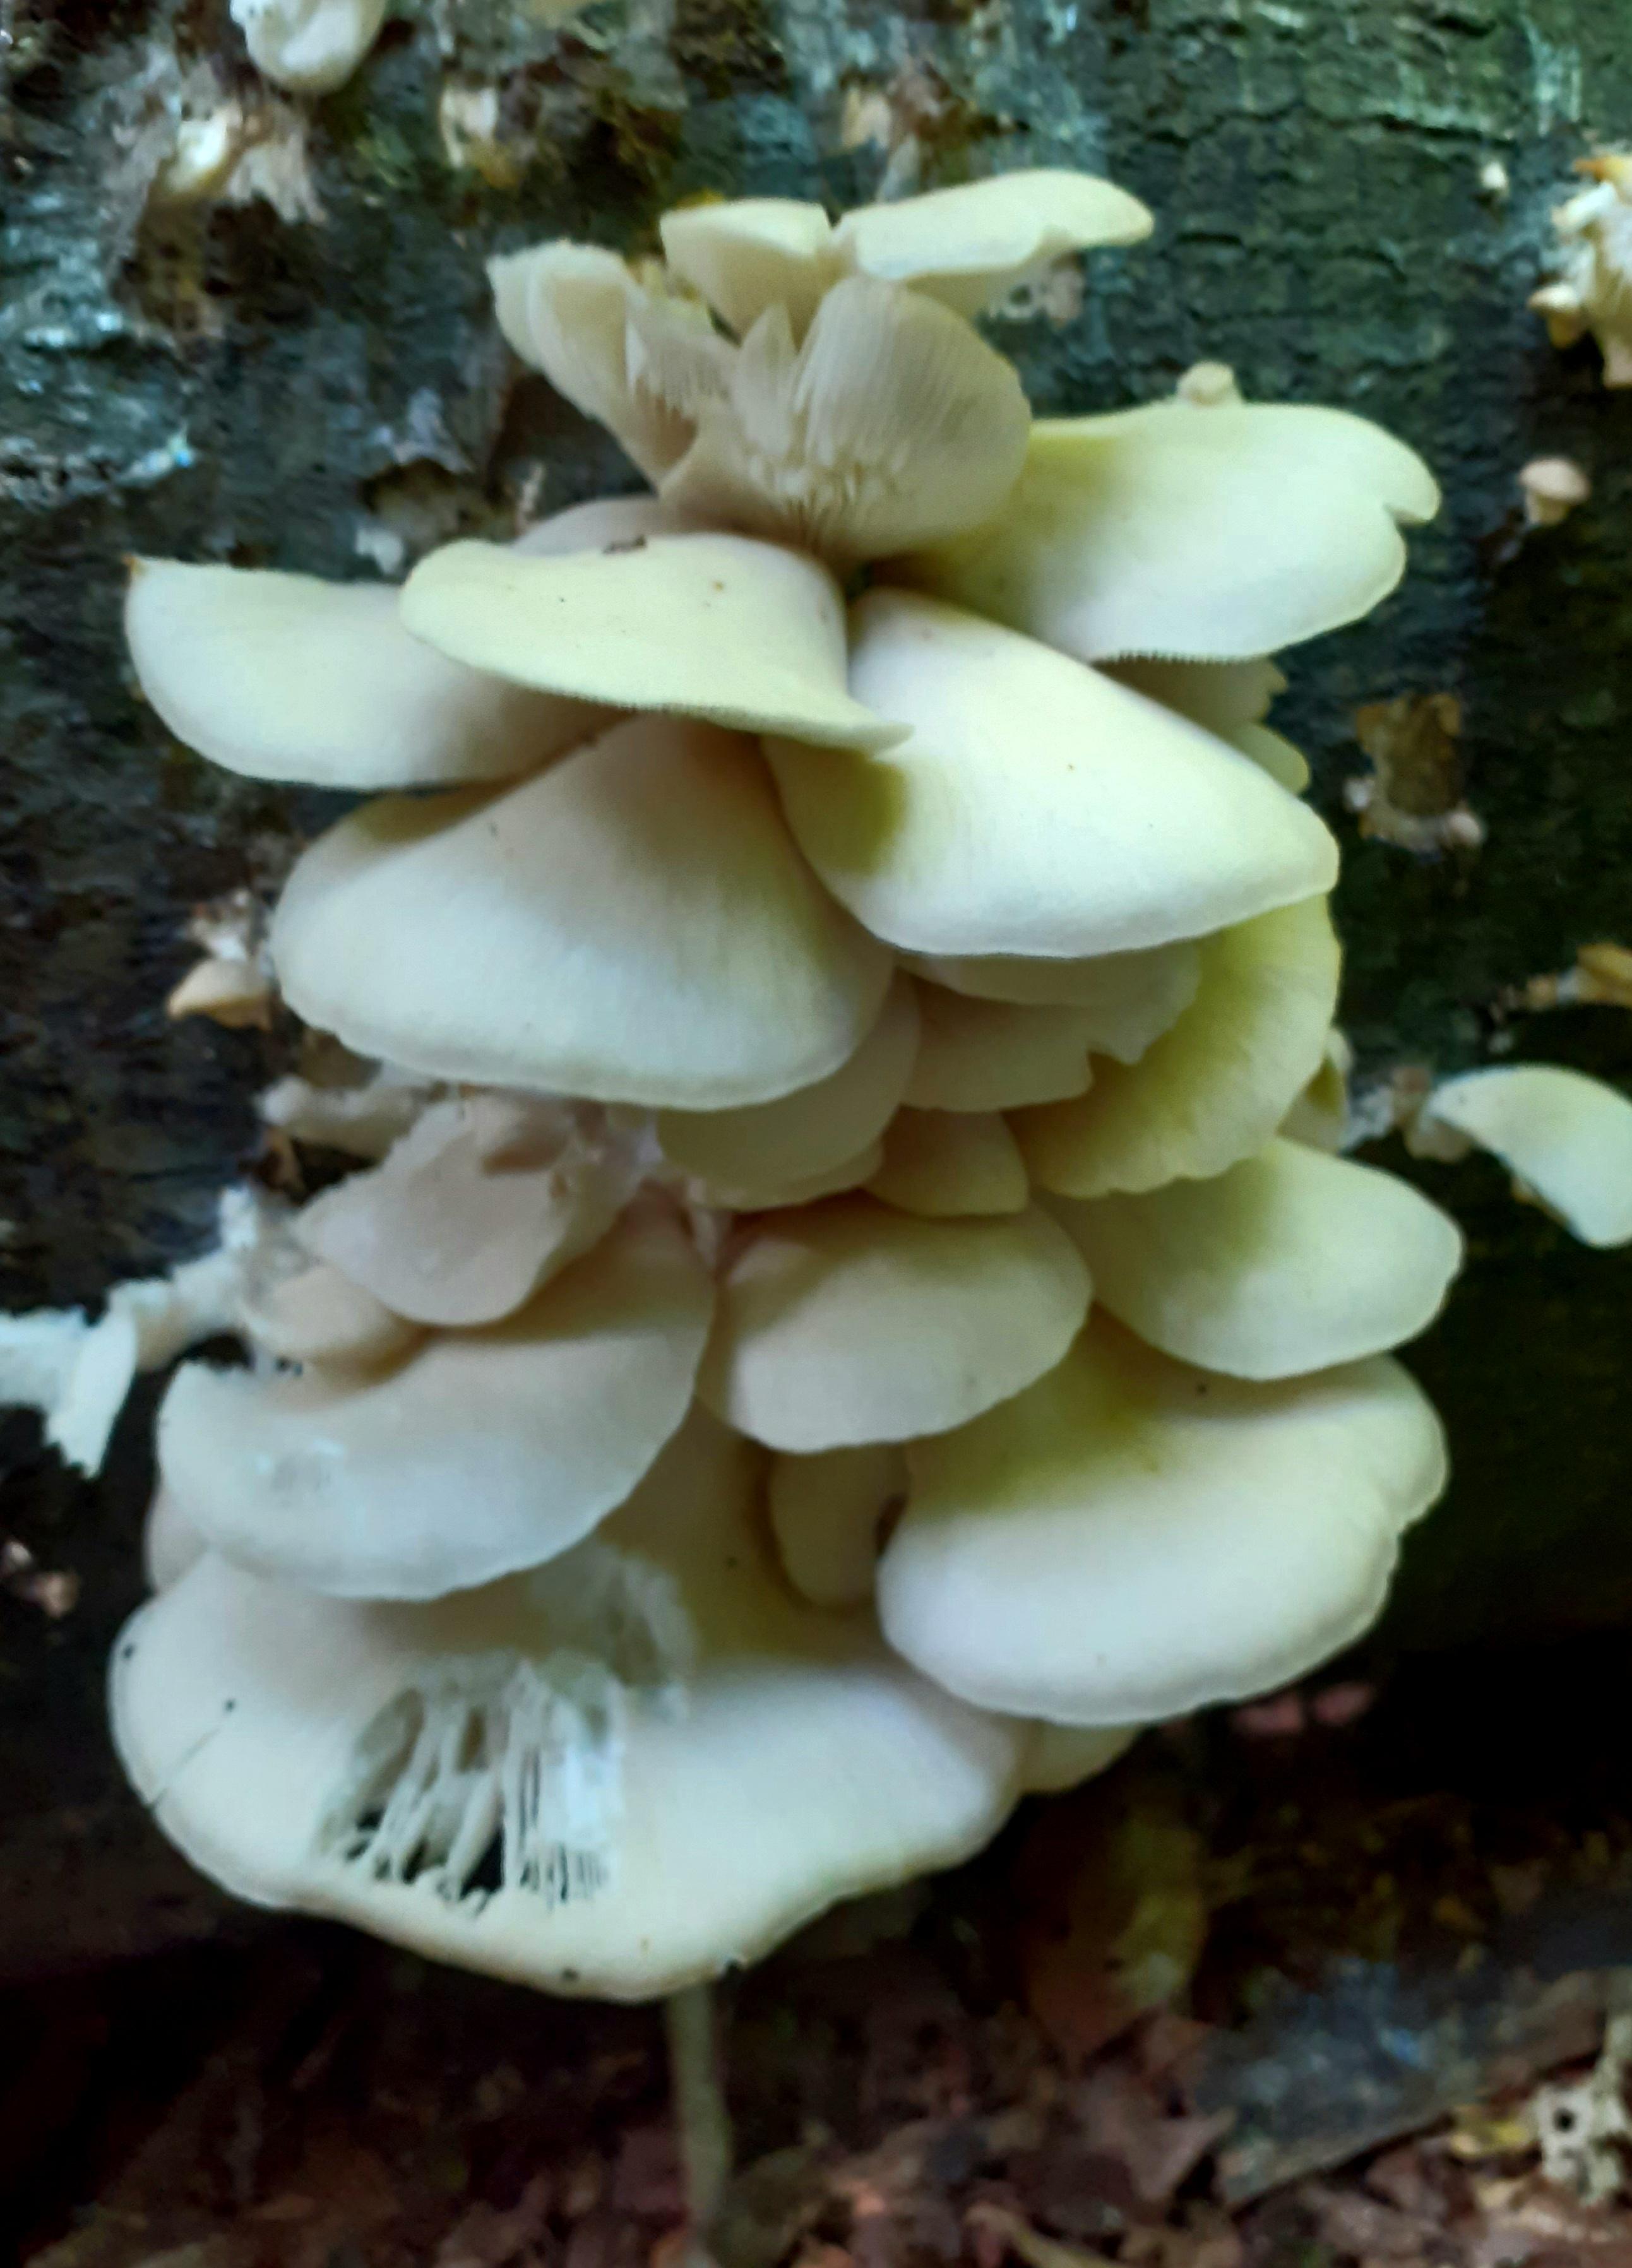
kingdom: Fungi
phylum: Basidiomycota
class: Agaricomycetes
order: Agaricales
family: Pleurotaceae
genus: Pleurotus
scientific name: Pleurotus pulmonarius
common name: sommer-østershat
